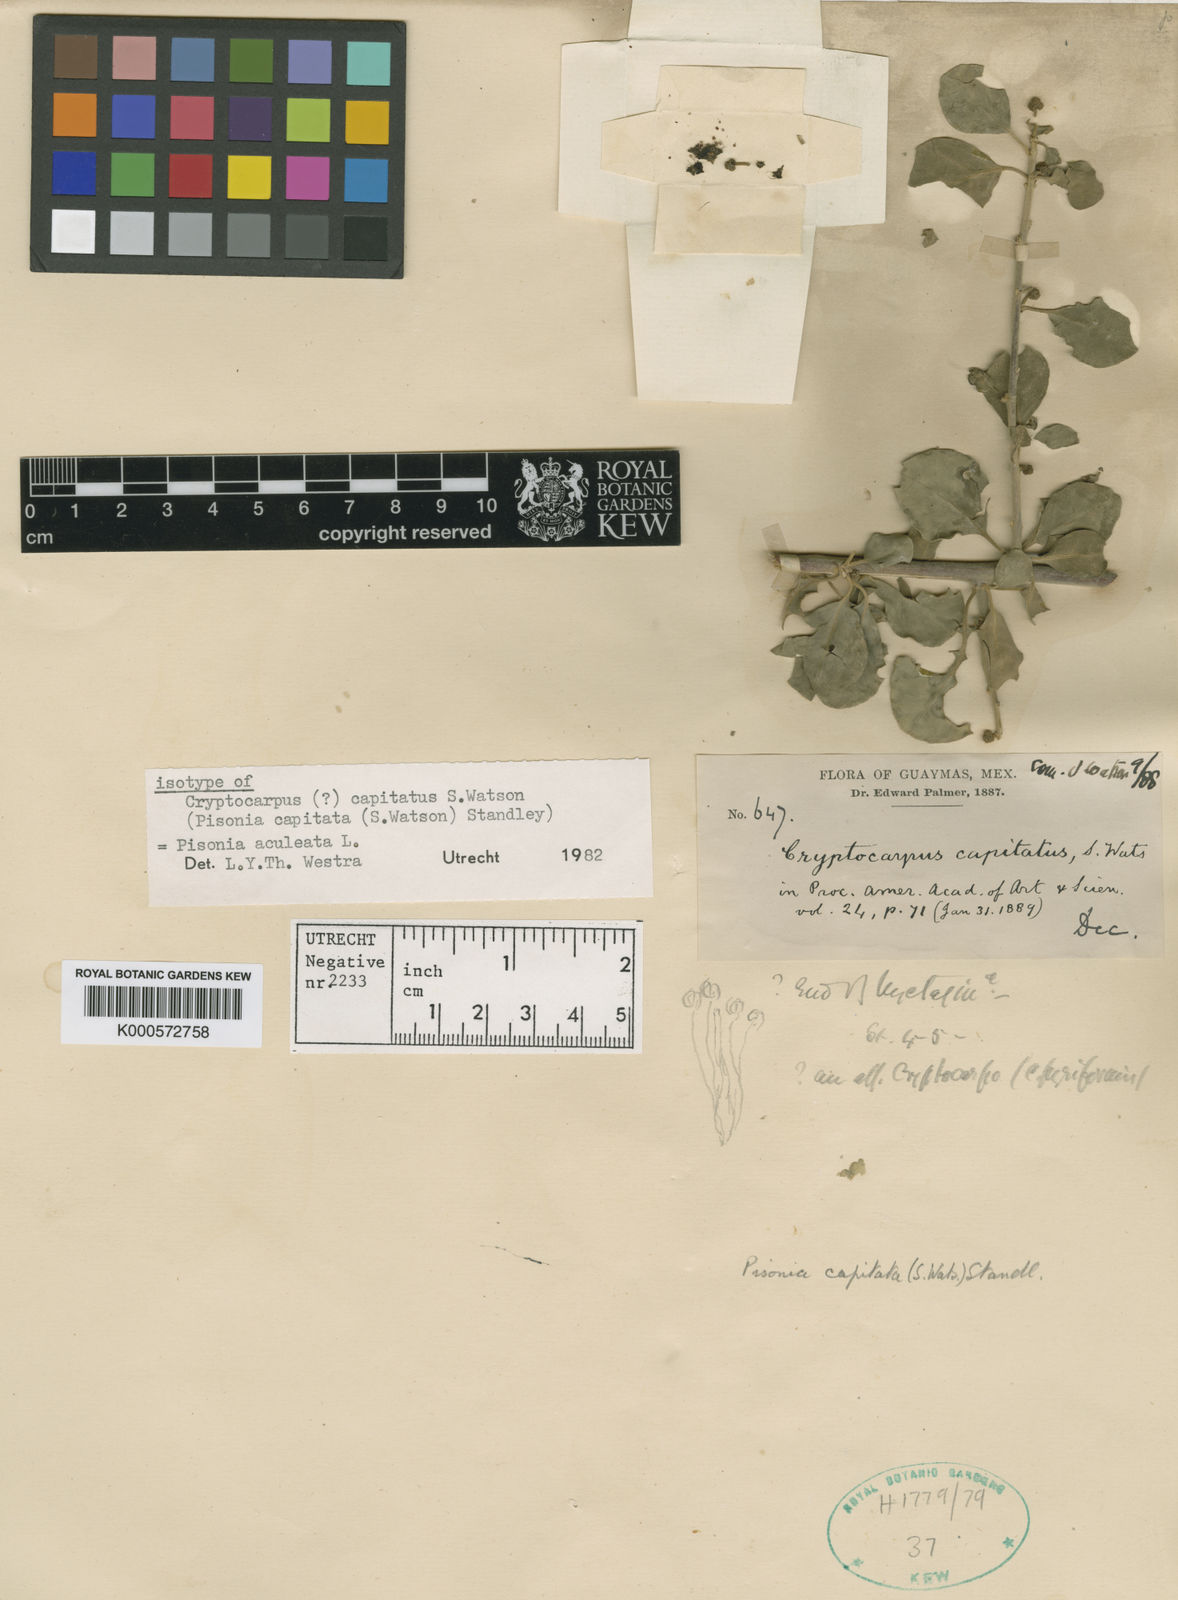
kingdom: Plantae
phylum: Tracheophyta
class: Magnoliopsida
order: Caryophyllales
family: Nyctaginaceae
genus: Pisonia
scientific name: Pisonia capitata
